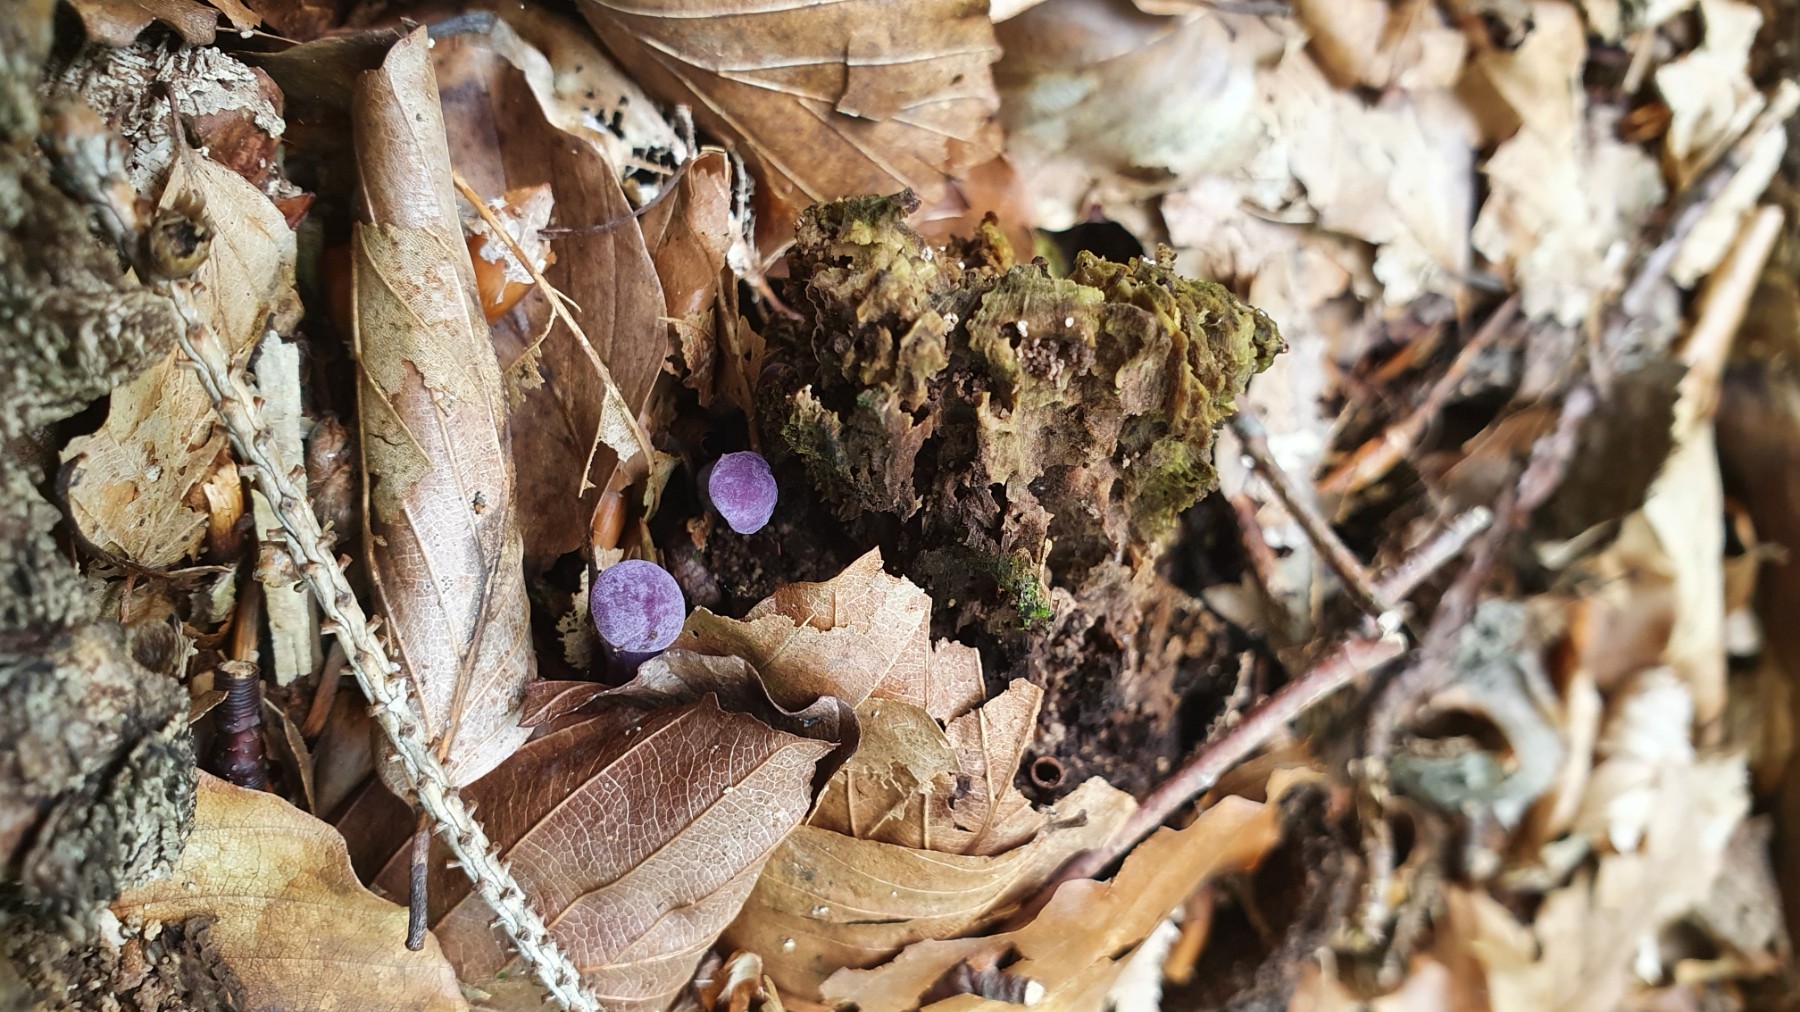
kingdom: Fungi
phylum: Basidiomycota
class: Agaricomycetes
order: Agaricales
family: Hydnangiaceae
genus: Laccaria
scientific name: Laccaria amethystina
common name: violet ametysthat
